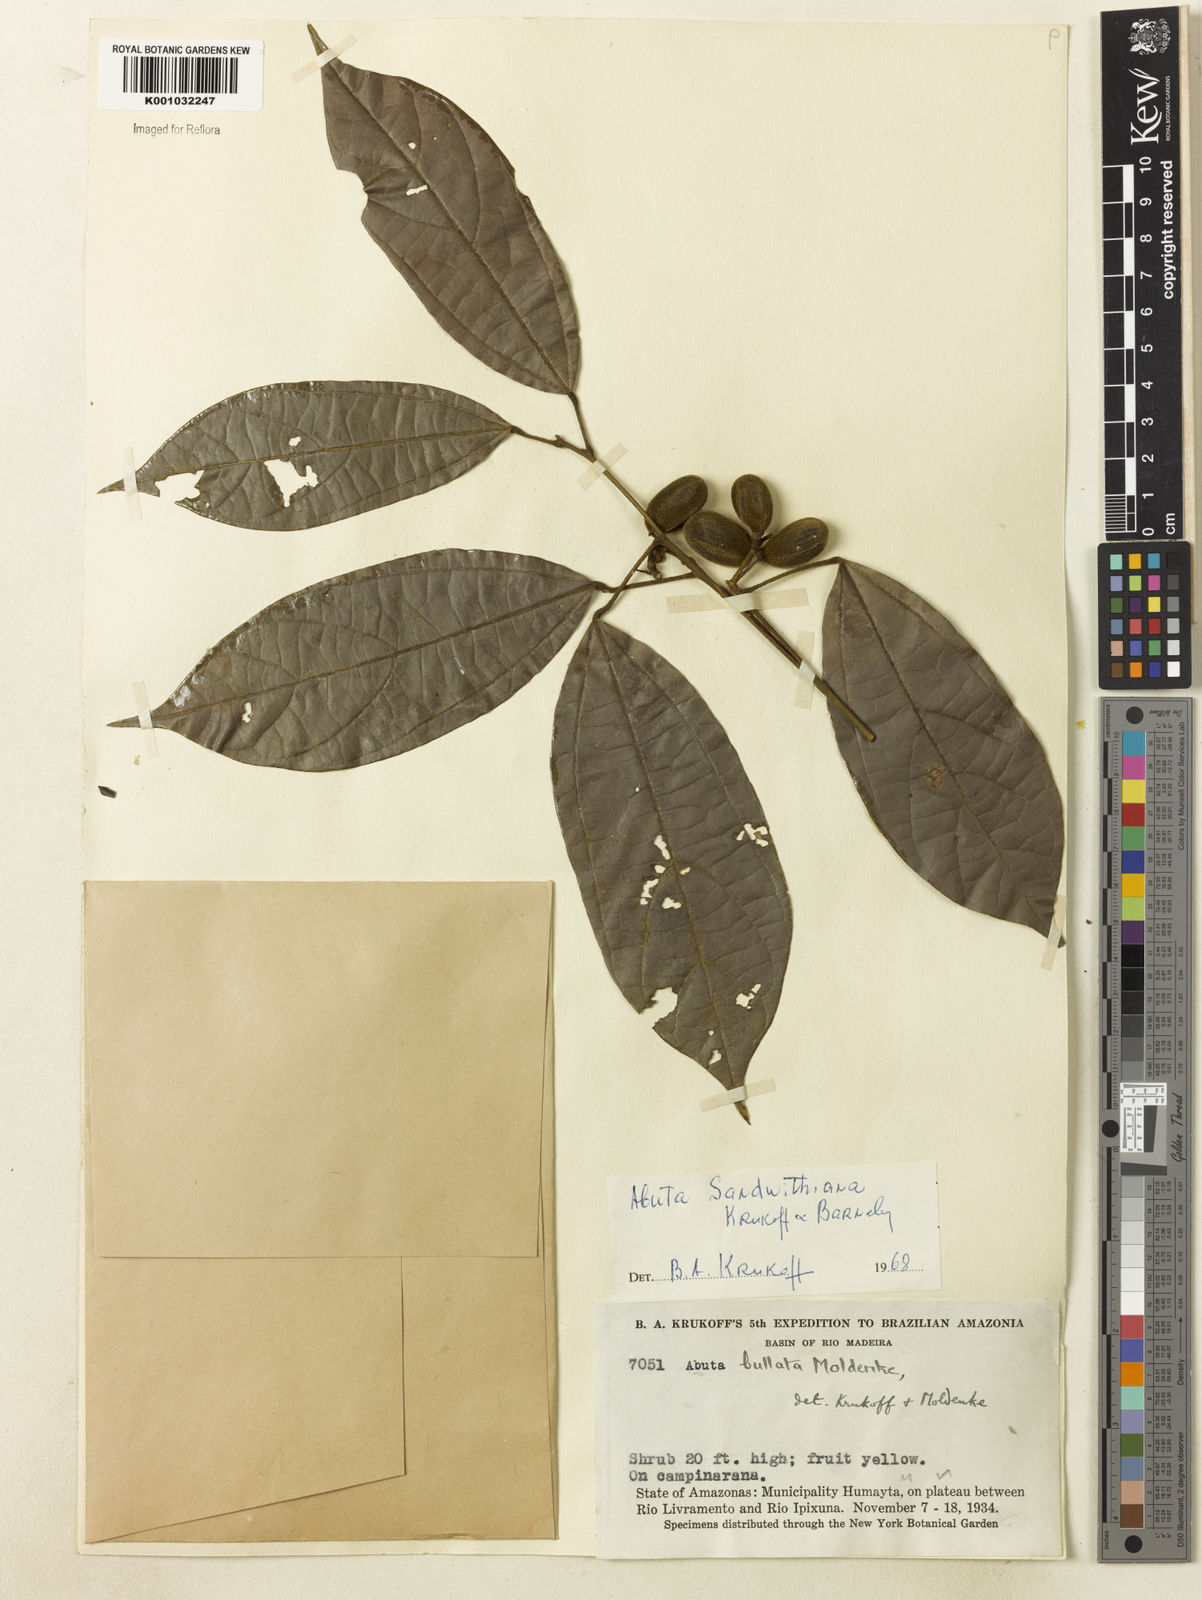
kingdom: Plantae
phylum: Tracheophyta
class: Magnoliopsida
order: Ranunculales
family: Menispermaceae
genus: Abuta
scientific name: Abuta sandwithiana
